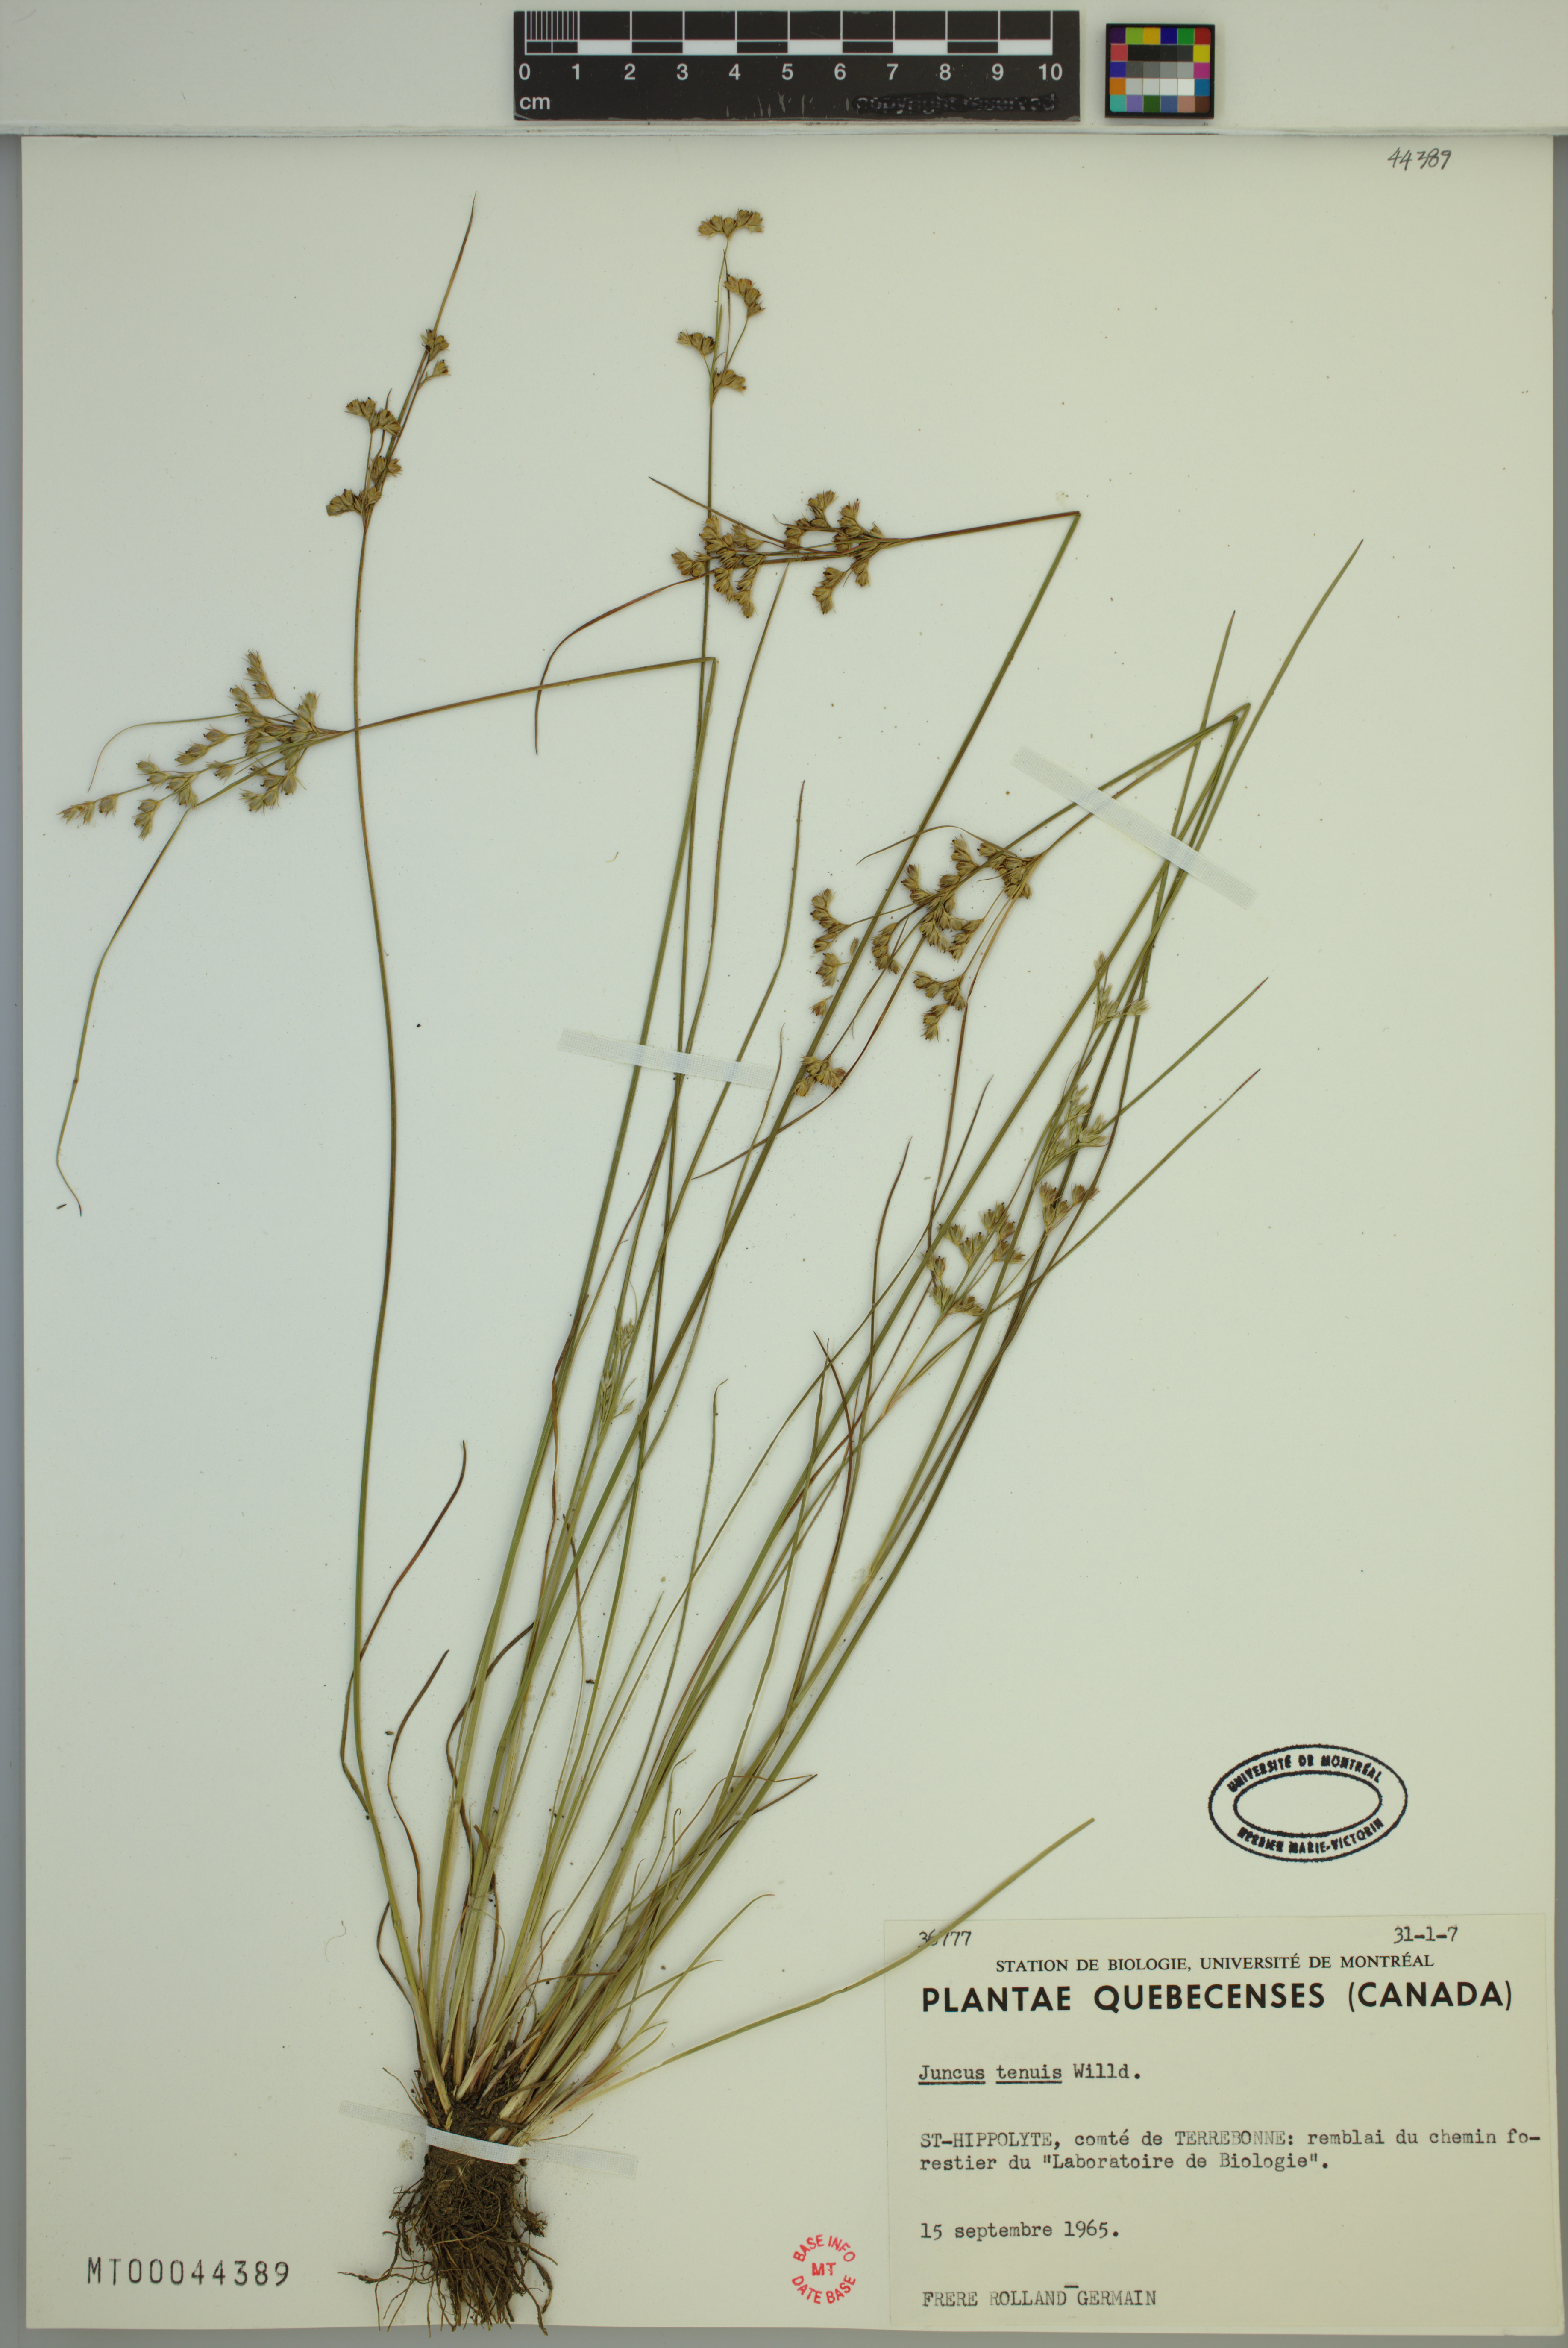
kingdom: Plantae
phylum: Tracheophyta
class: Liliopsida
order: Poales
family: Juncaceae
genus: Juncus
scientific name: Juncus tenuis
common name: Slender rush
